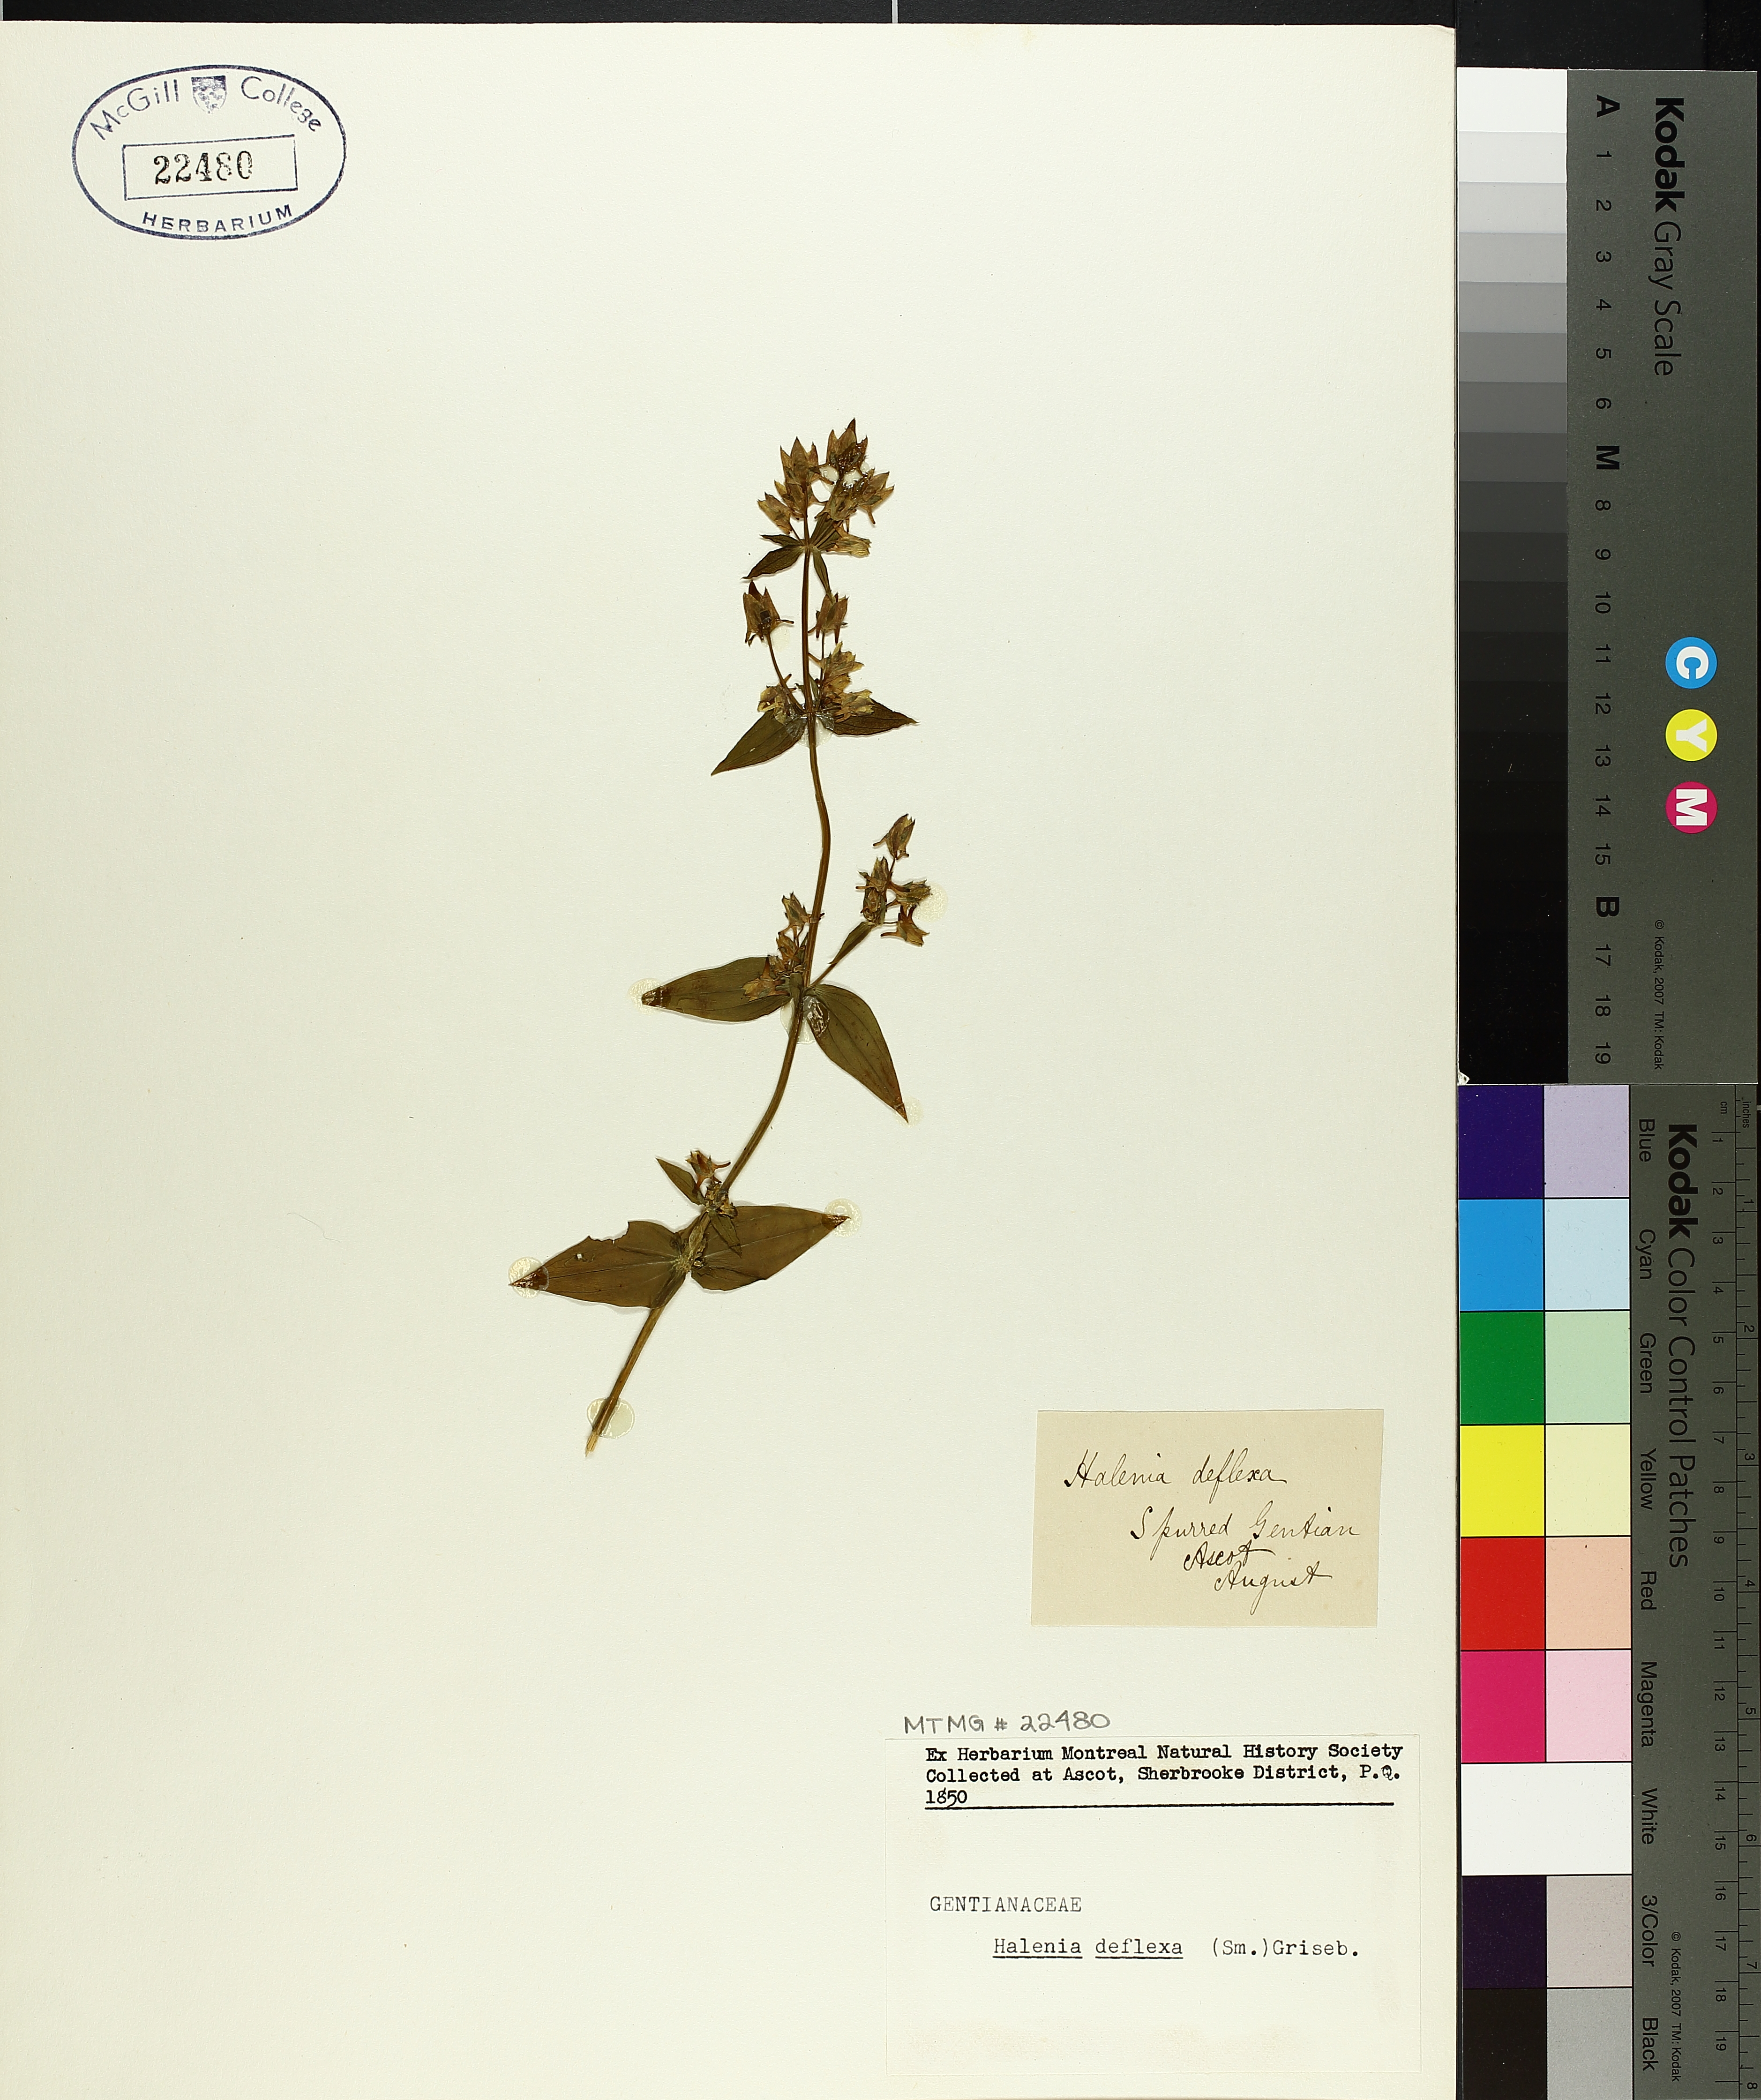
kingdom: Plantae
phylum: Tracheophyta
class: Magnoliopsida
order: Gentianales
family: Gentianaceae
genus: Halenia
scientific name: Halenia deflexa
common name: American spurred gentian
